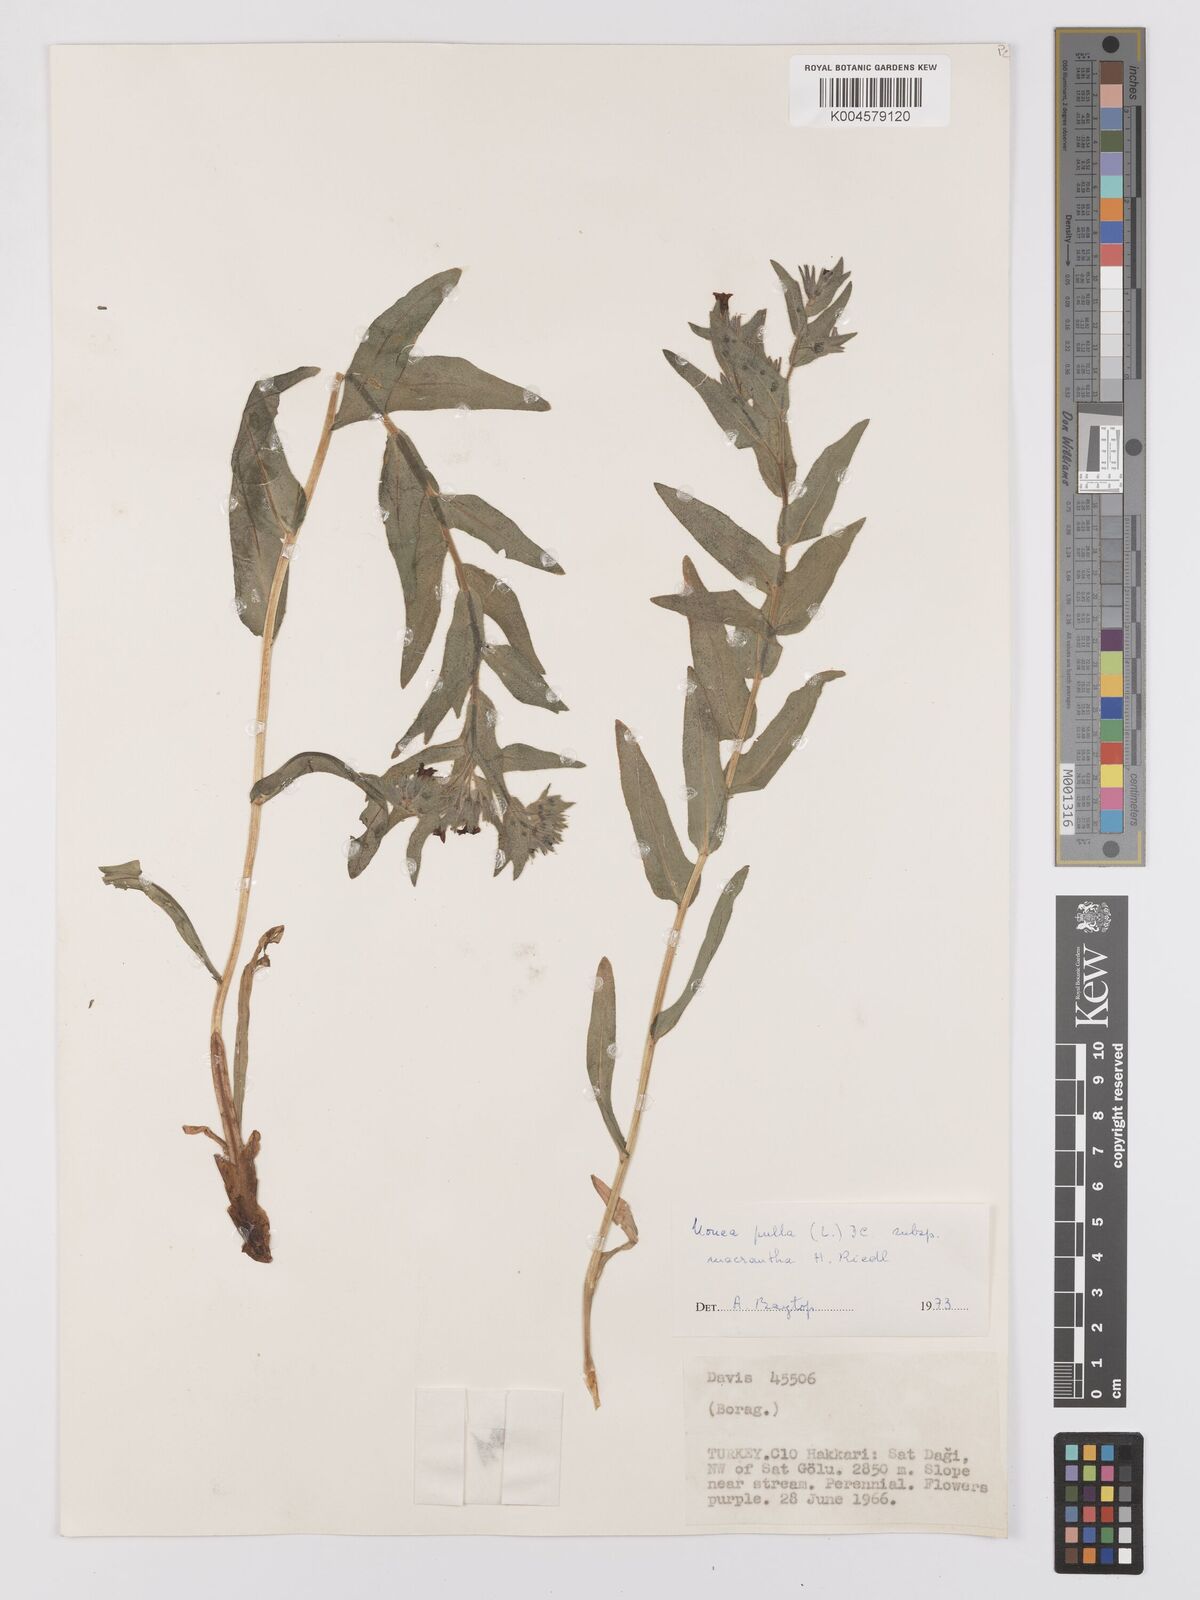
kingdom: Plantae
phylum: Tracheophyta
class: Magnoliopsida
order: Boraginales
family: Boraginaceae
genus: Nonea
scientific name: Nonea pulla
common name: Brown nonea
